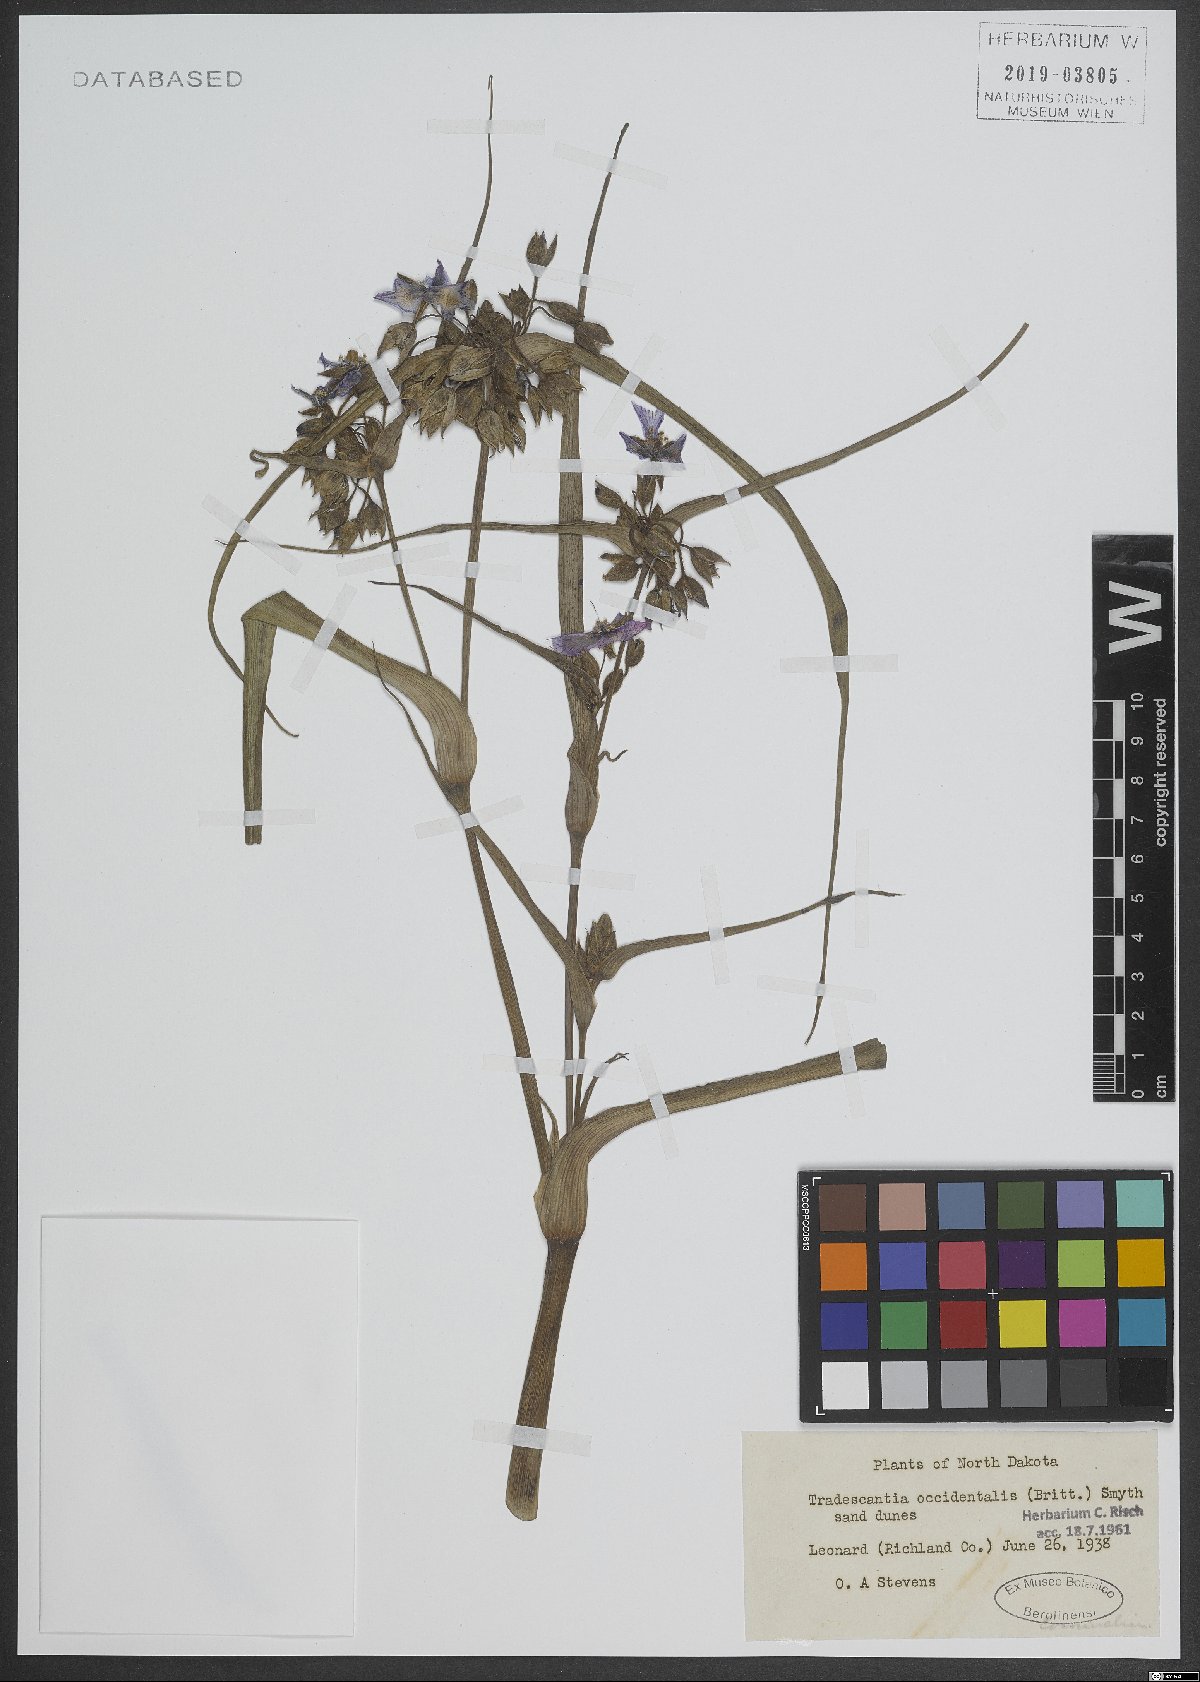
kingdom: Plantae
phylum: Tracheophyta
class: Liliopsida
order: Commelinales
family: Commelinaceae
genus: Tradescantia
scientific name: Tradescantia occidentalis
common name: Prairie spiderwort
